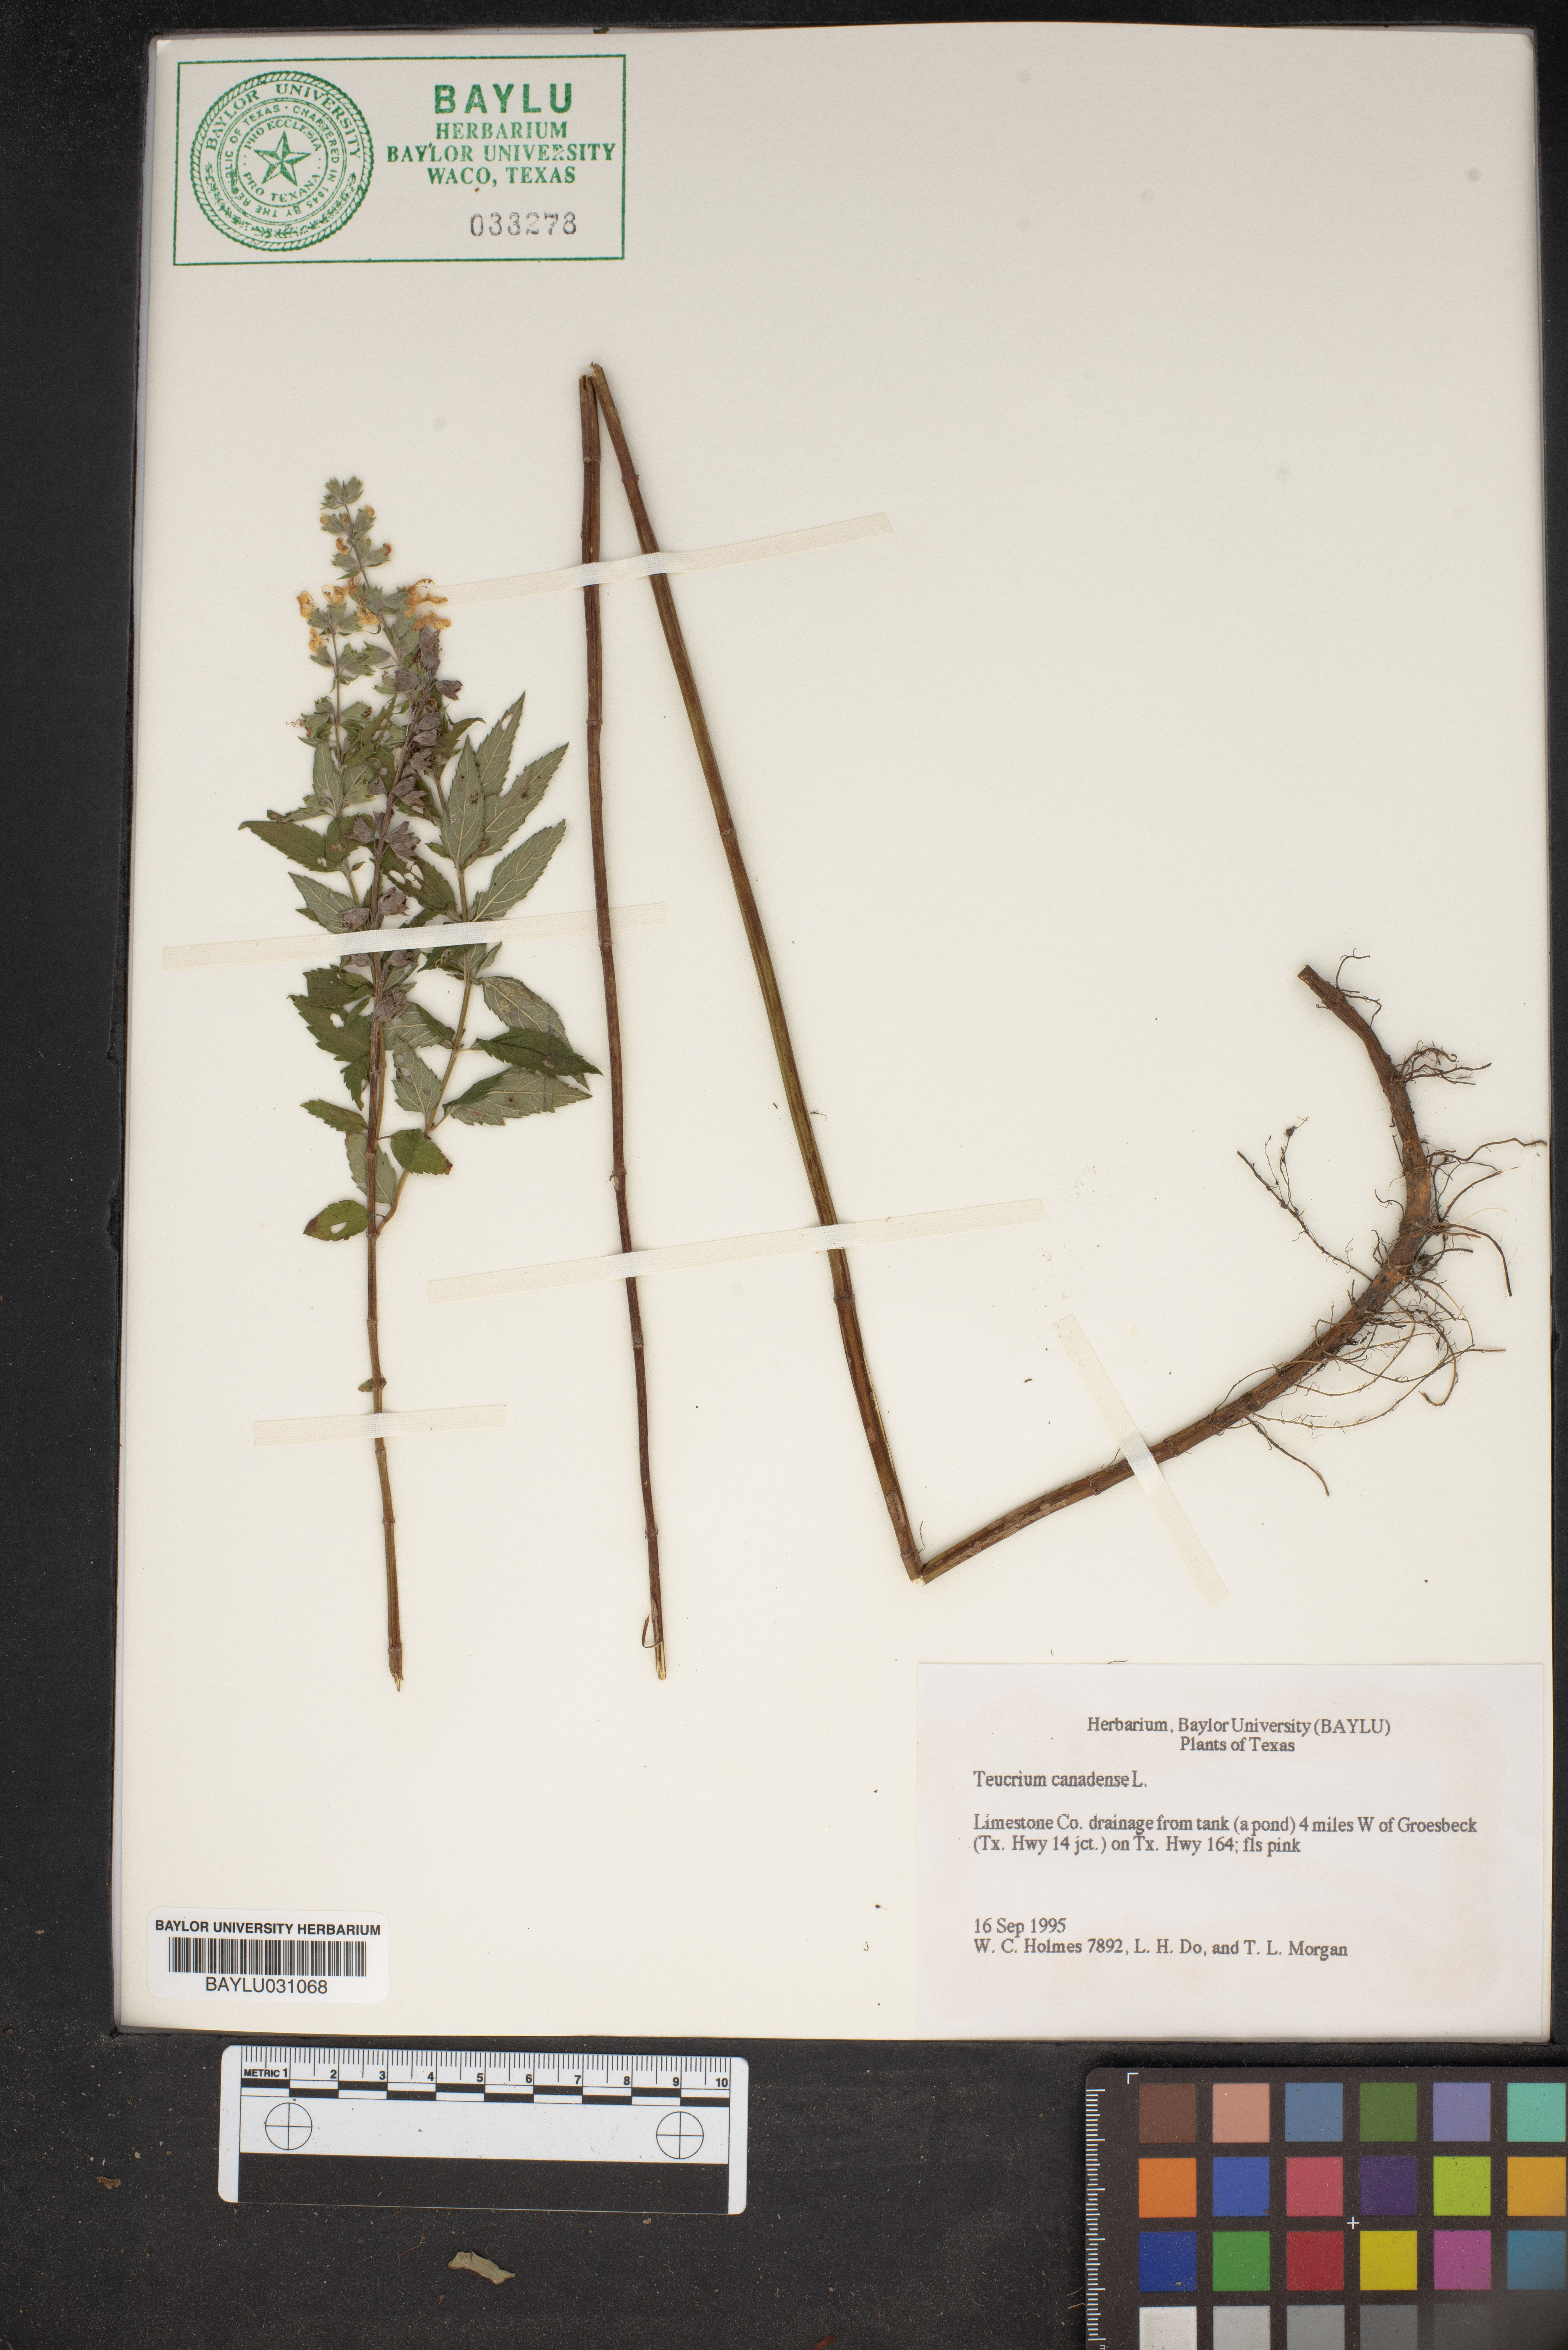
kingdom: Plantae
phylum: Tracheophyta
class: Magnoliopsida
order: Lamiales
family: Lamiaceae
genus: Teucrium
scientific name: Teucrium canadense
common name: American germander
